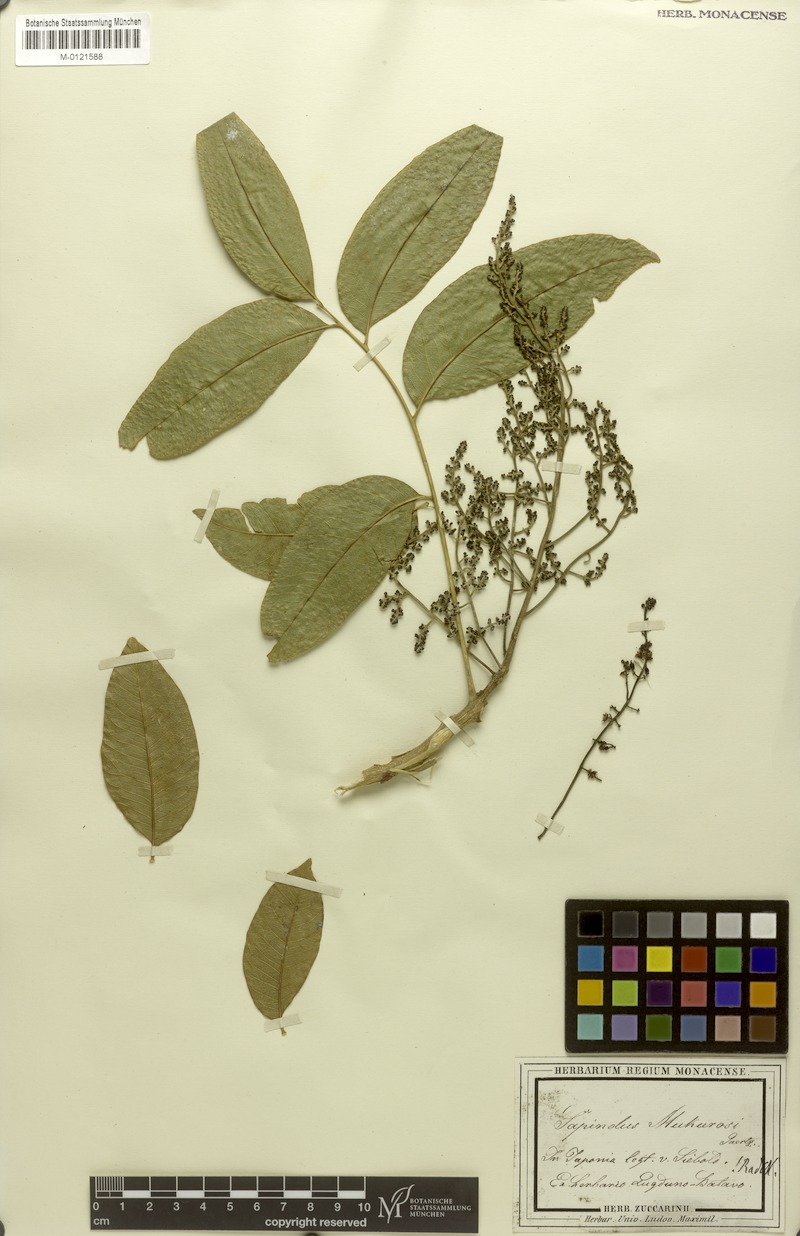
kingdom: Plantae
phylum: Tracheophyta
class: Magnoliopsida
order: Sapindales
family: Sapindaceae
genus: Sapindus
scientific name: Sapindus mukorossi
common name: Chinese soapberry
